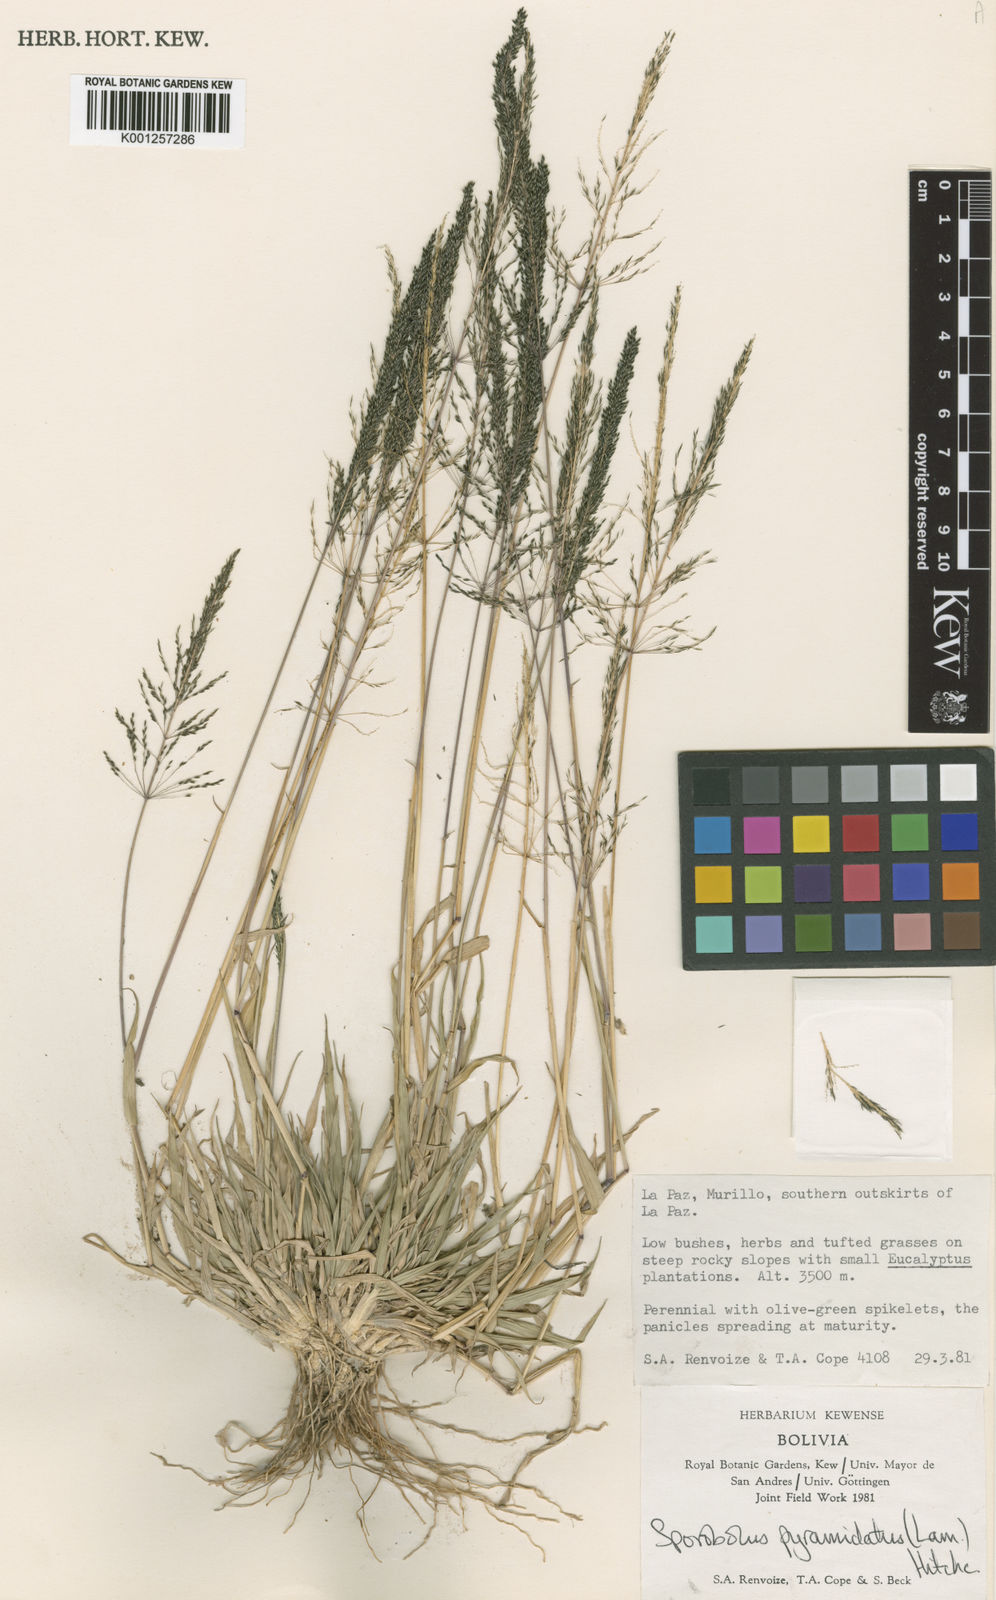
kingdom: Plantae
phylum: Tracheophyta
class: Liliopsida
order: Poales
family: Poaceae
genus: Sporobolus
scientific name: Sporobolus pyramidatus
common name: Whorled dropseed
